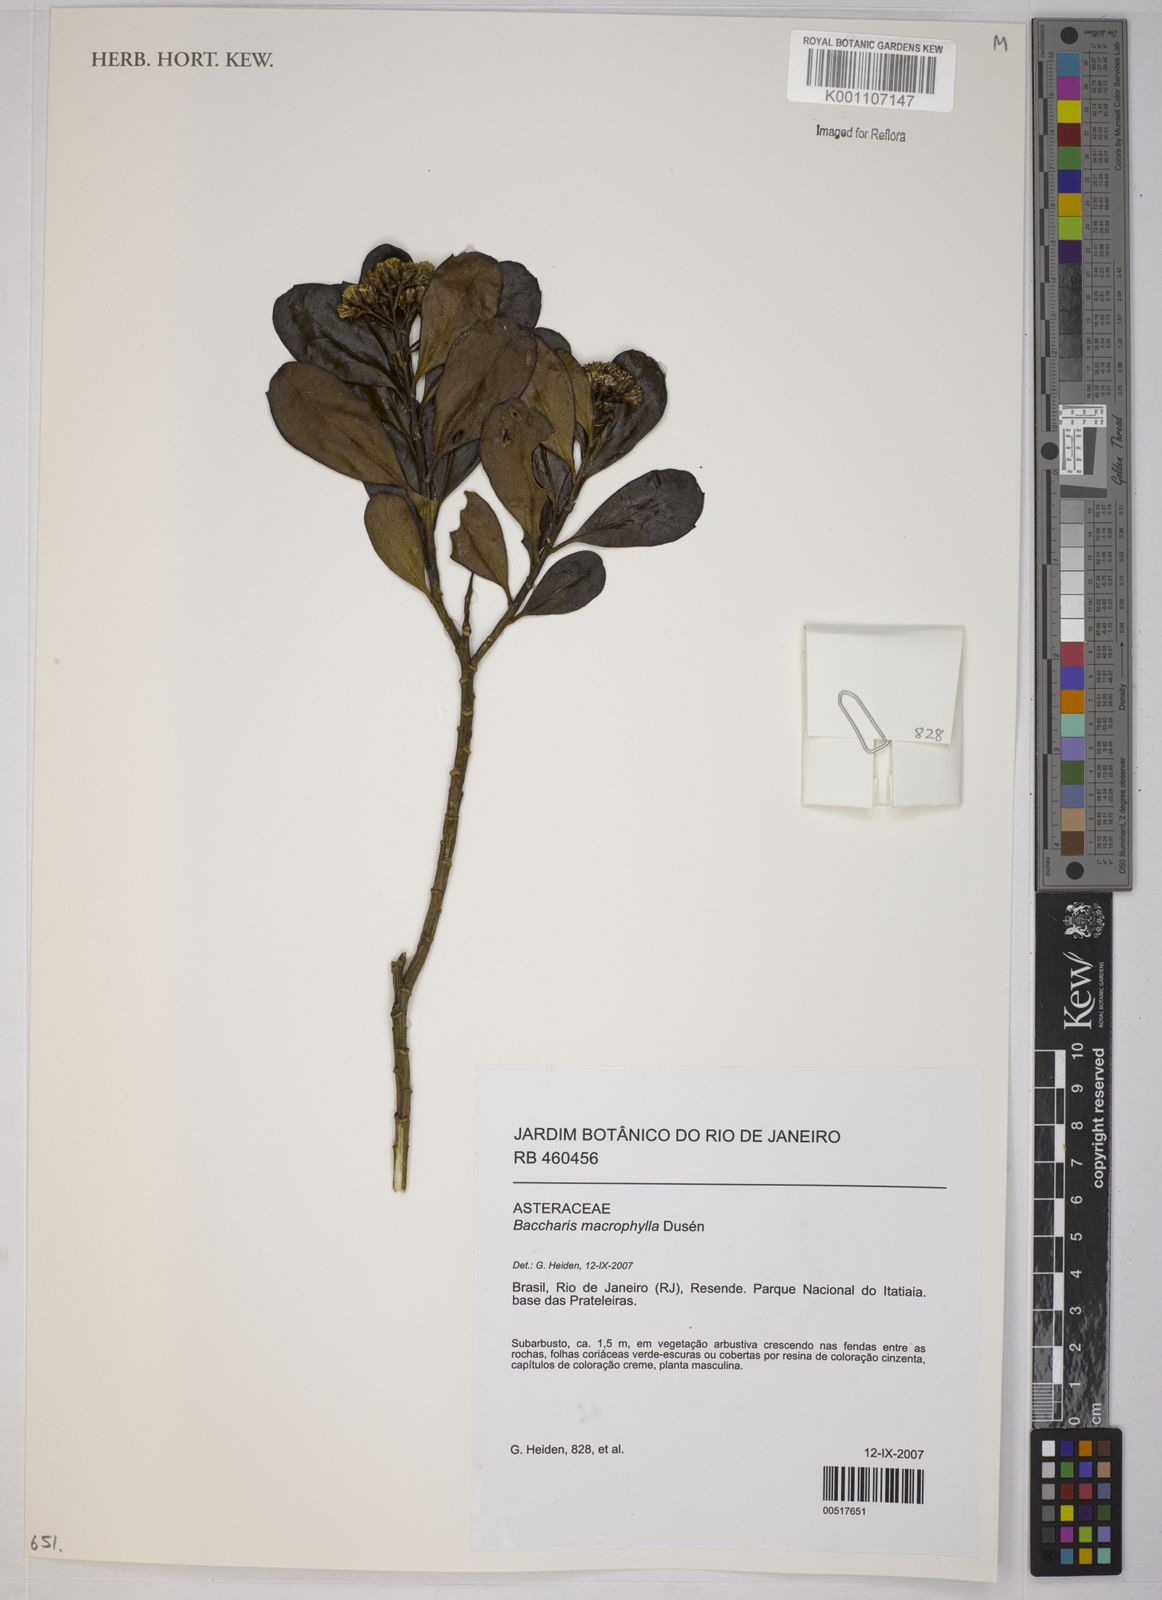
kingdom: Plantae
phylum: Tracheophyta
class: Magnoliopsida
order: Asterales
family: Asteraceae
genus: Baccharis
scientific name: Baccharis
